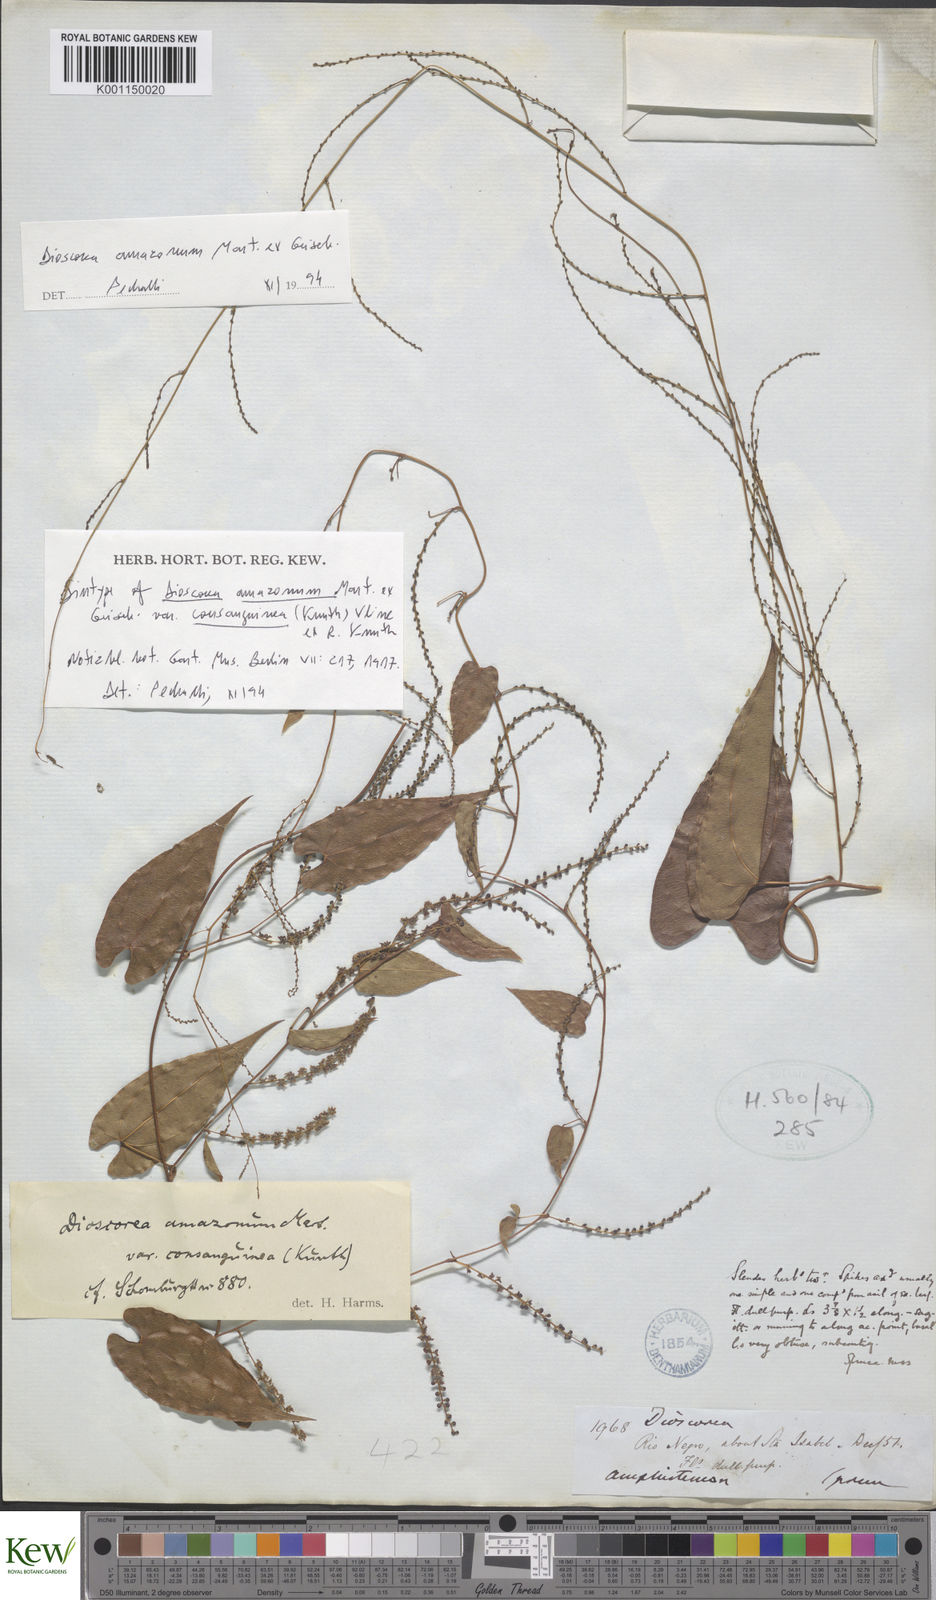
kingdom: Plantae
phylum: Tracheophyta
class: Liliopsida
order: Dioscoreales
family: Dioscoreaceae
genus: Dioscorea
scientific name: Dioscorea amazonum
